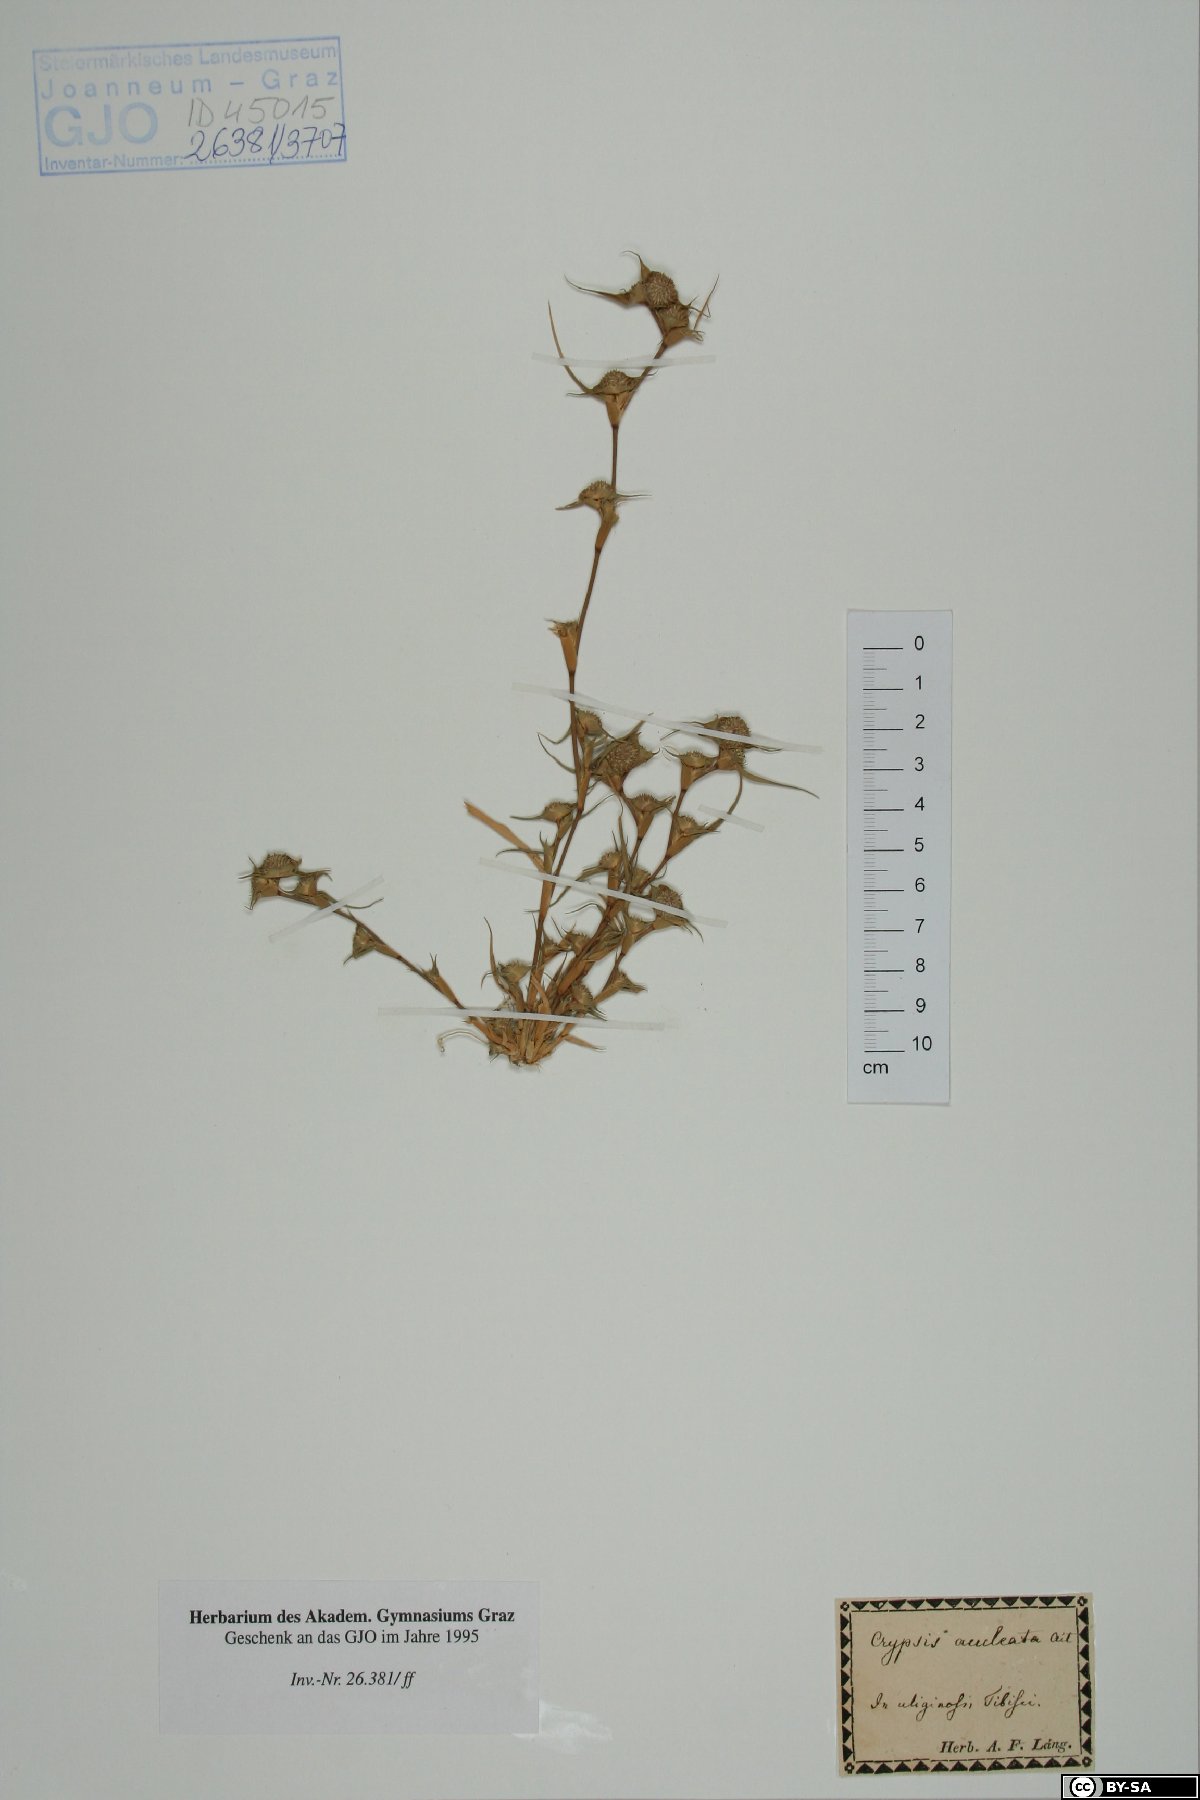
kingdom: Plantae
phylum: Tracheophyta
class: Liliopsida
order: Poales
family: Poaceae
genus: Sporobolus
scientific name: Sporobolus aculeatus
